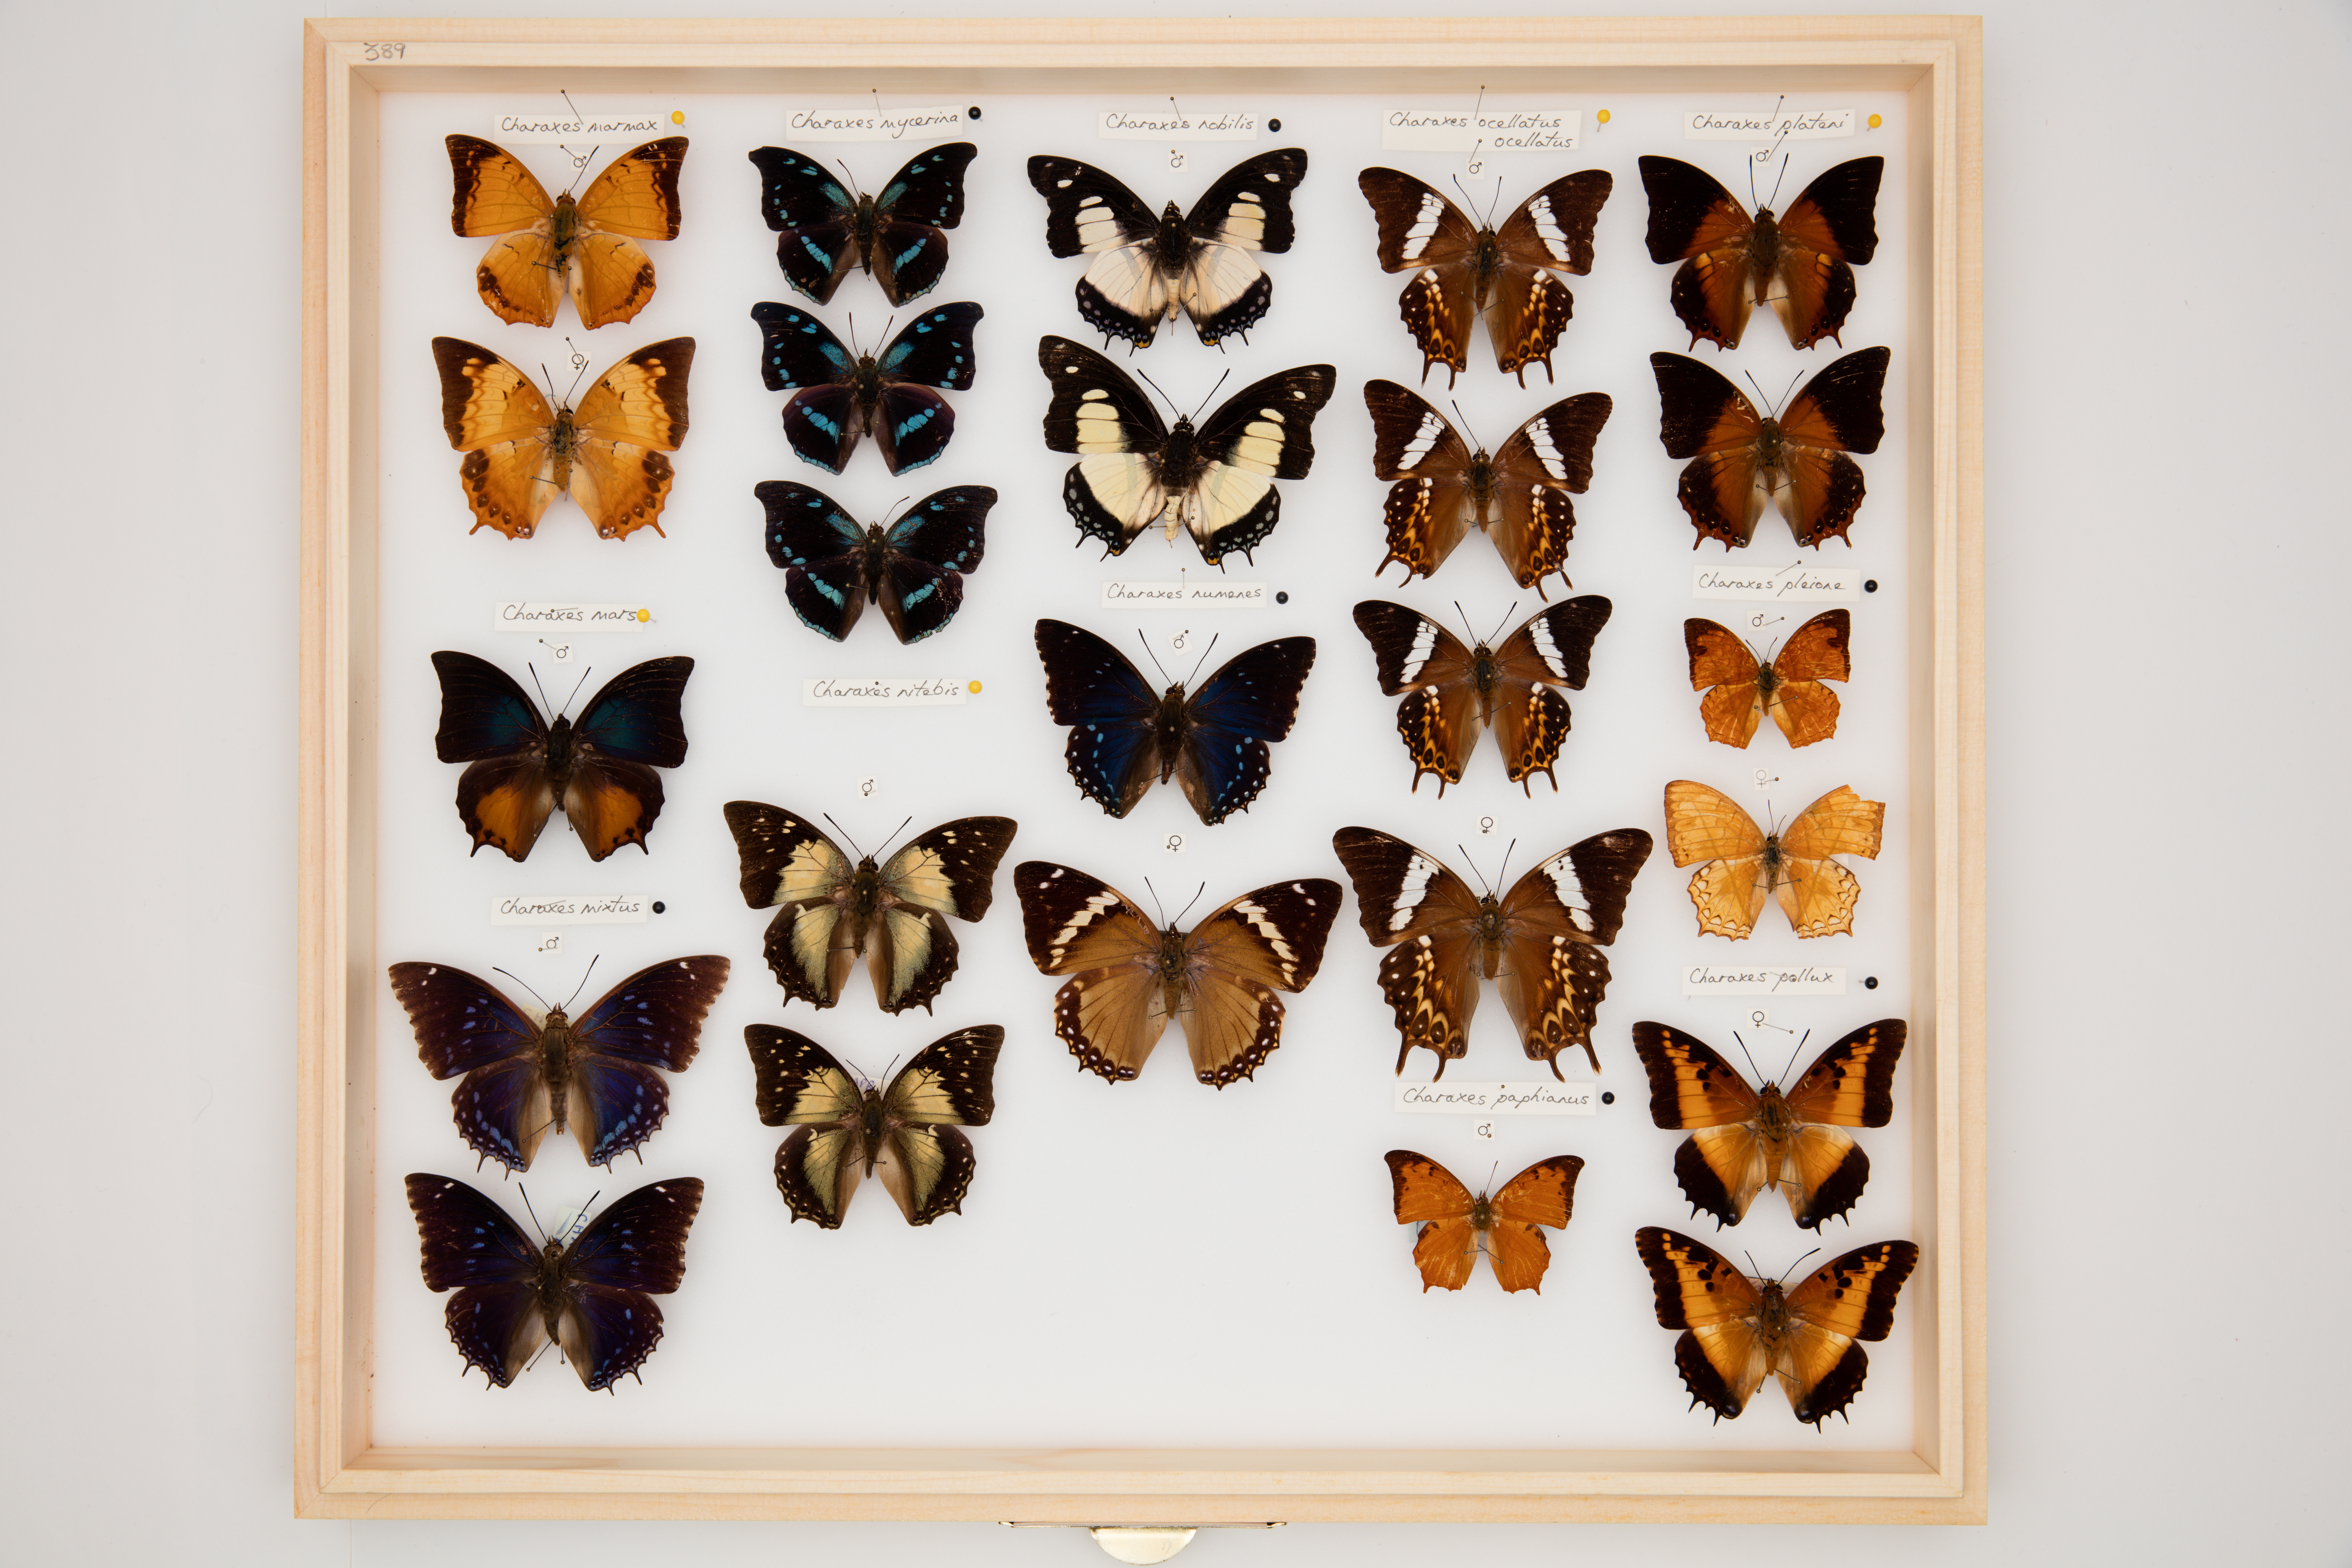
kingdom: Animalia
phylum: Arthropoda
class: Insecta
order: Lepidoptera
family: Nymphalidae
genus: Charaxes
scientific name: Charaxes ocellatus
